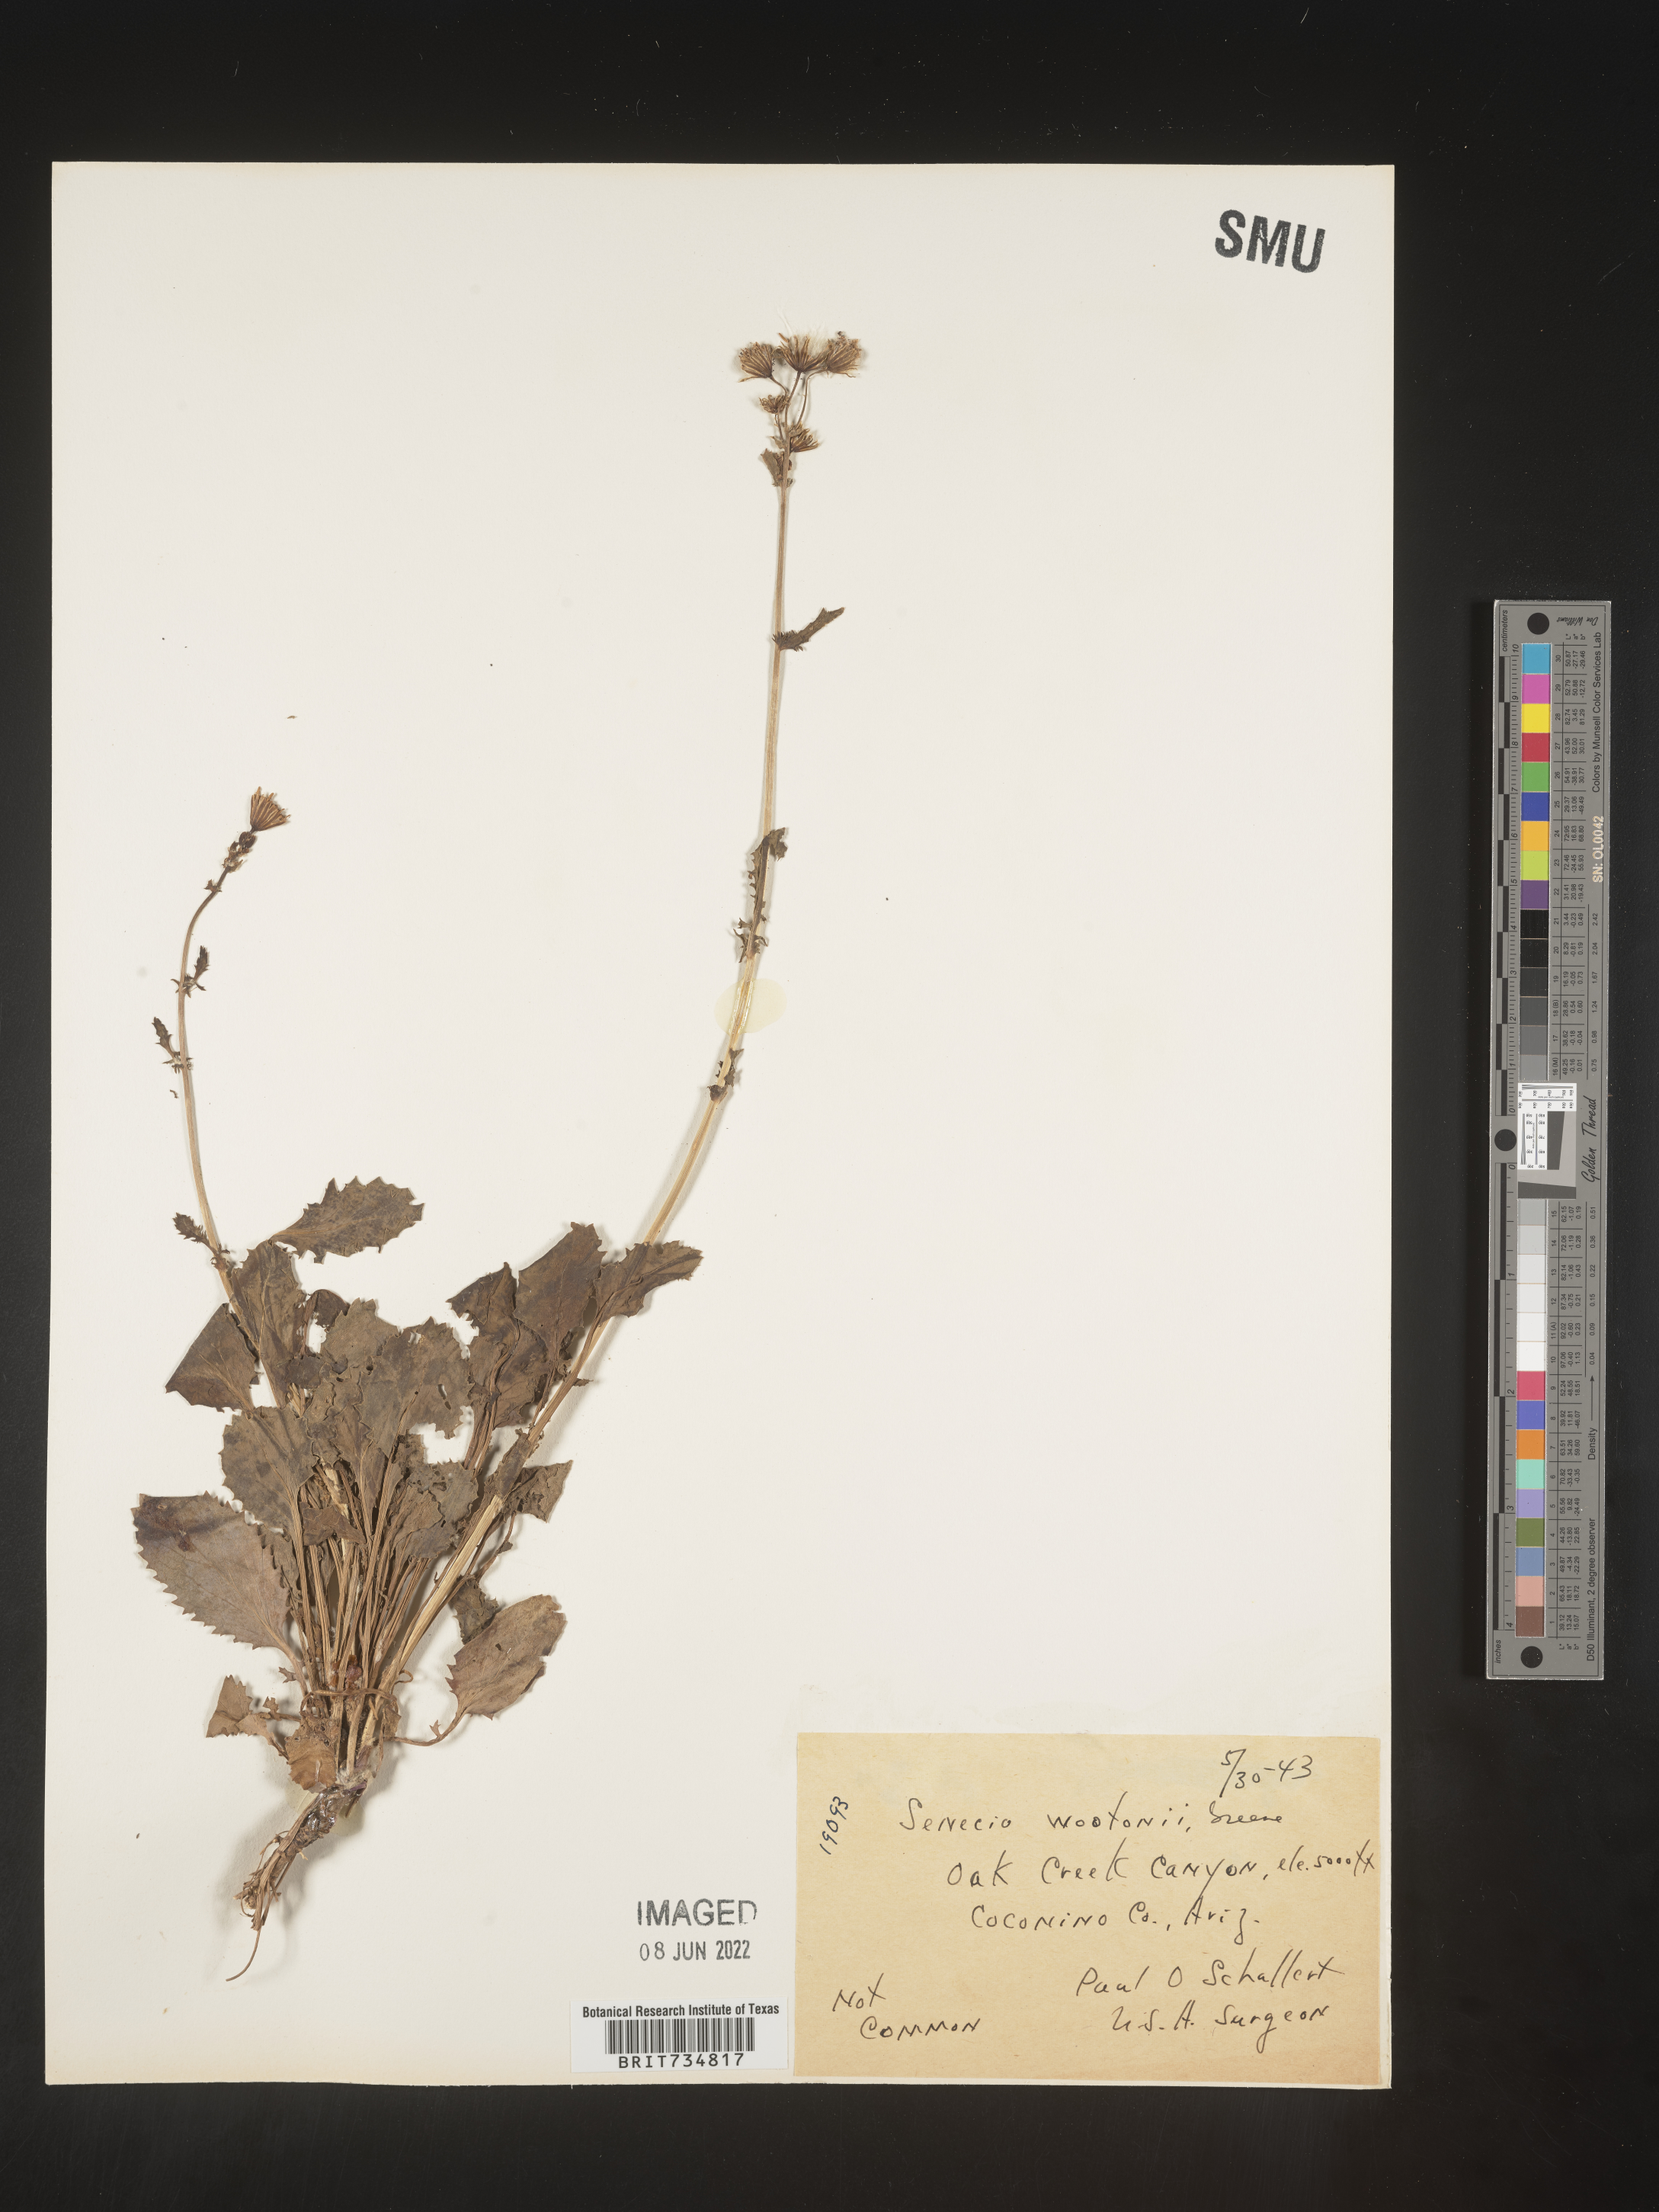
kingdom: Plantae
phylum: Tracheophyta
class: Magnoliopsida
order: Asterales
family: Asteraceae
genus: Packera
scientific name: Packera
